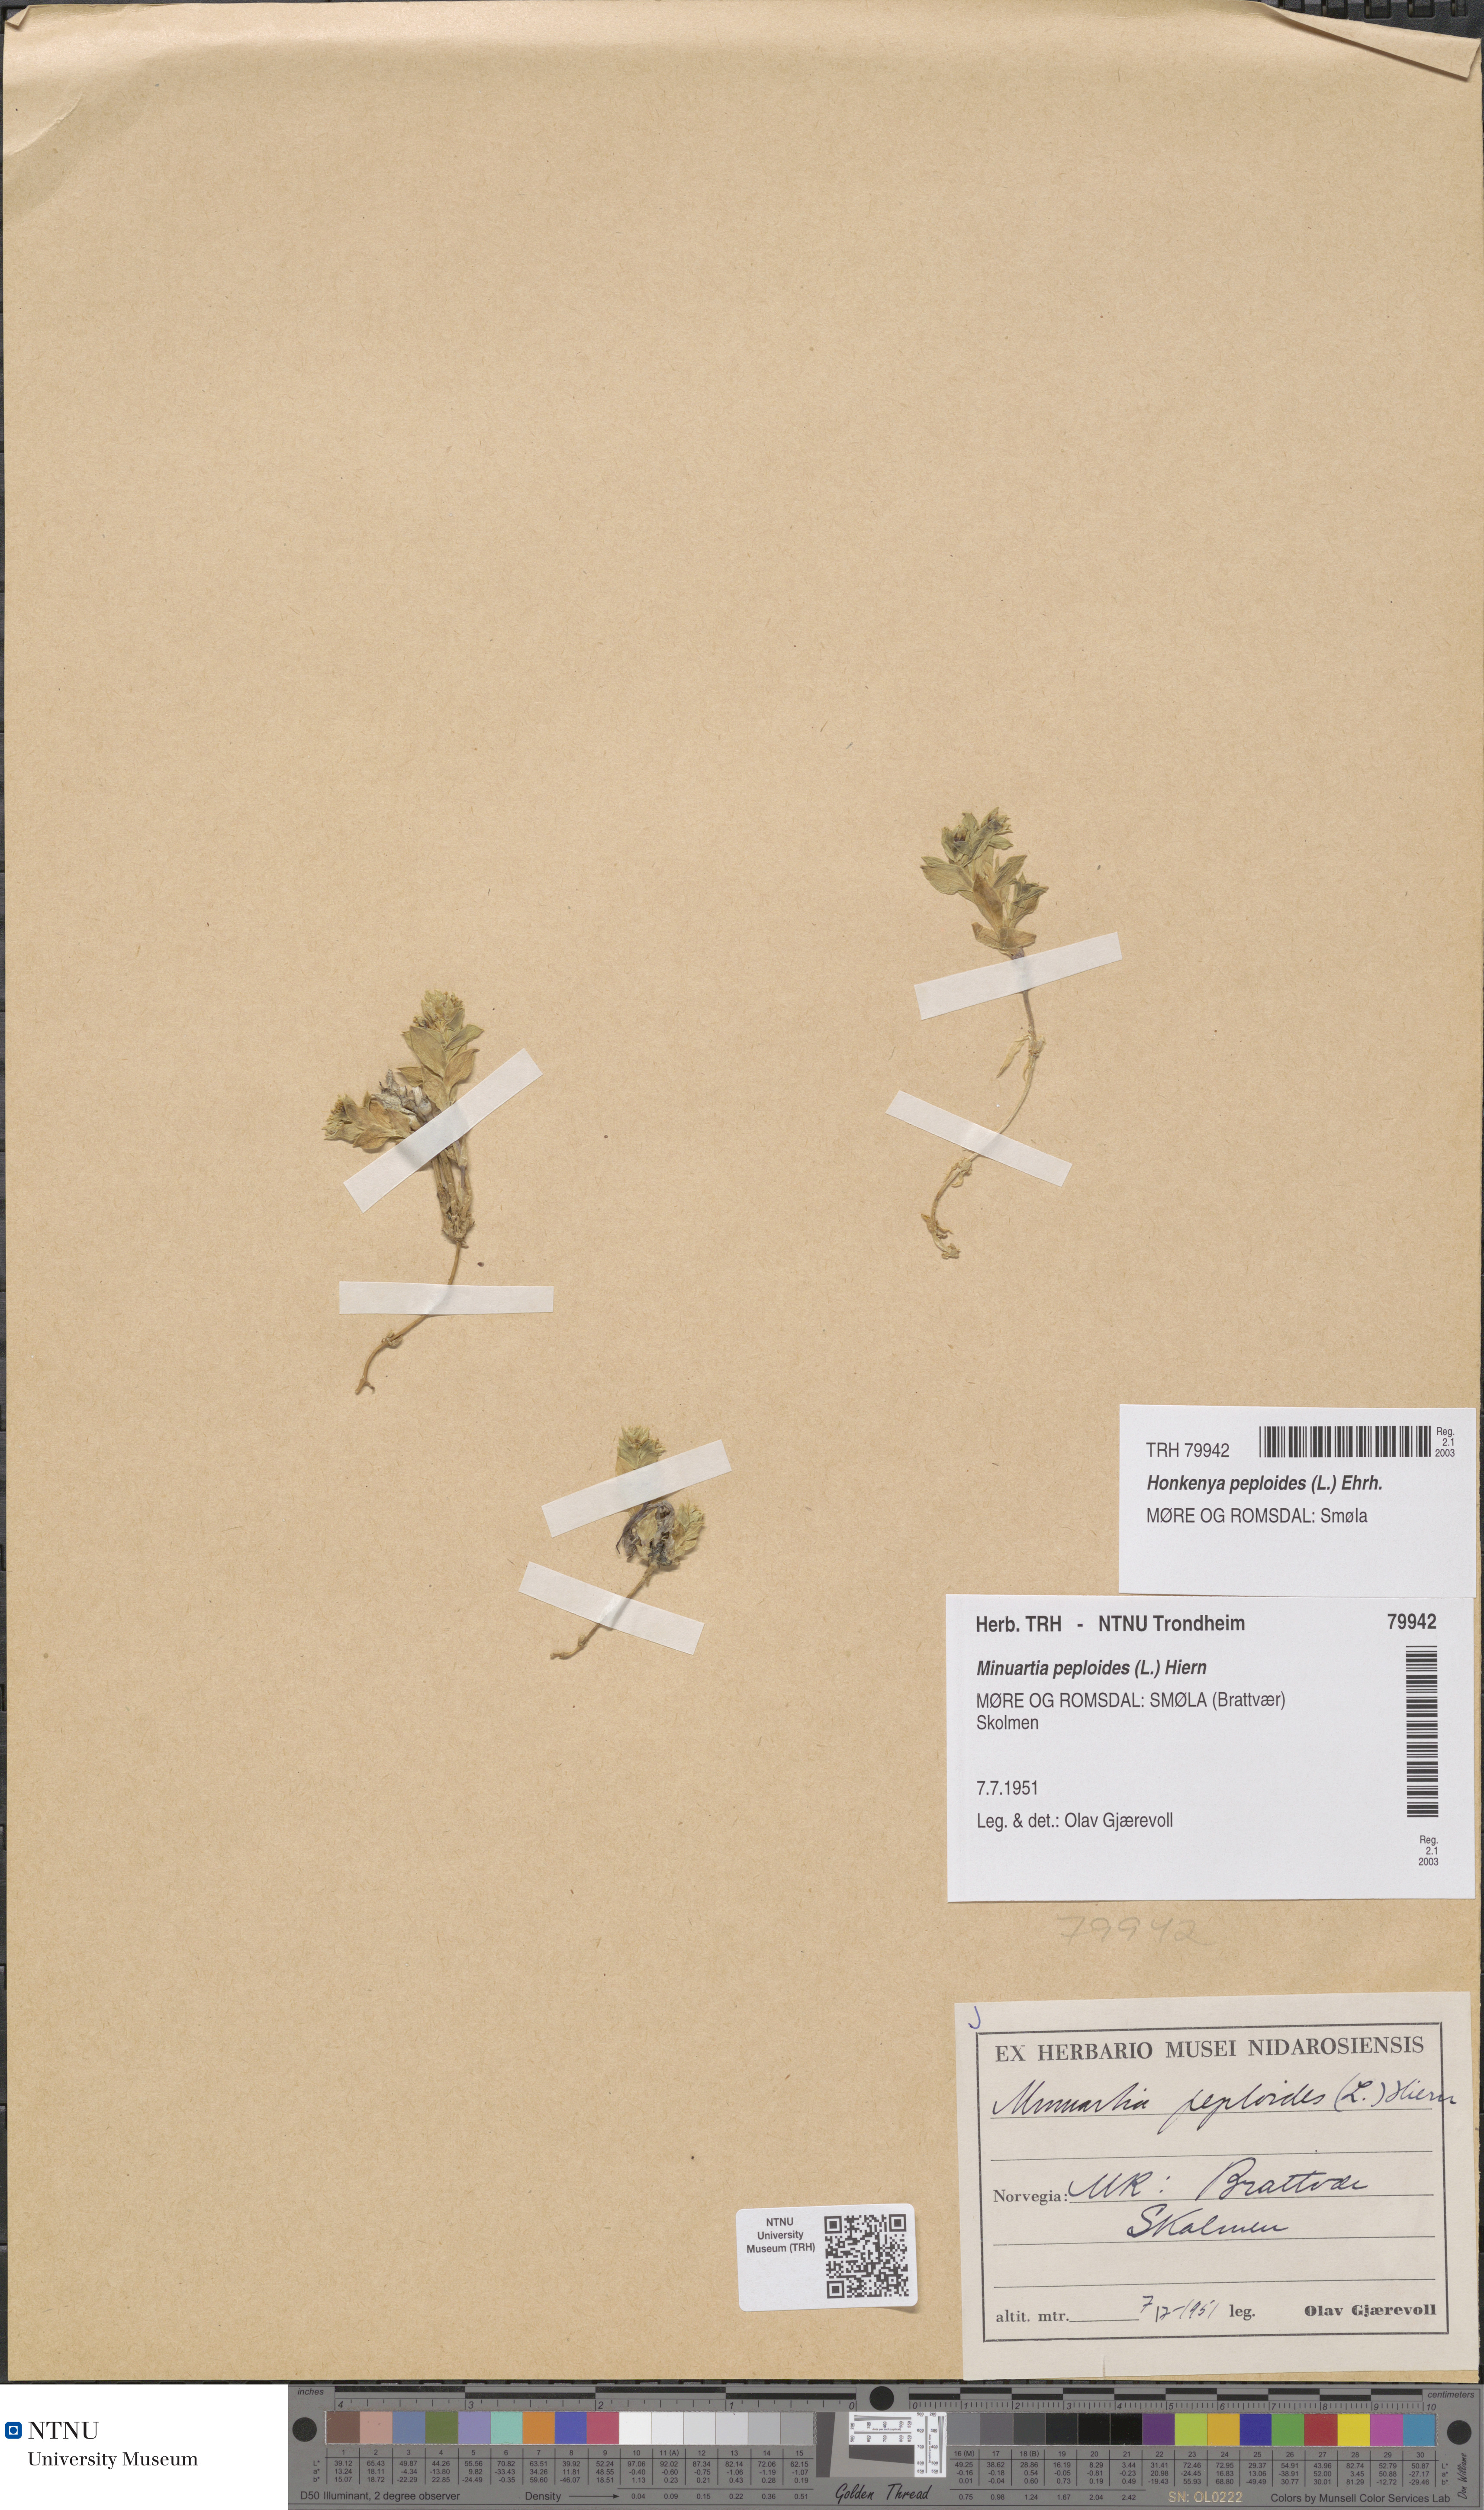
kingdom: Plantae
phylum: Tracheophyta
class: Magnoliopsida
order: Caryophyllales
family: Caryophyllaceae
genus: Honckenya
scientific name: Honckenya peploides
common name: Sea sandwort
